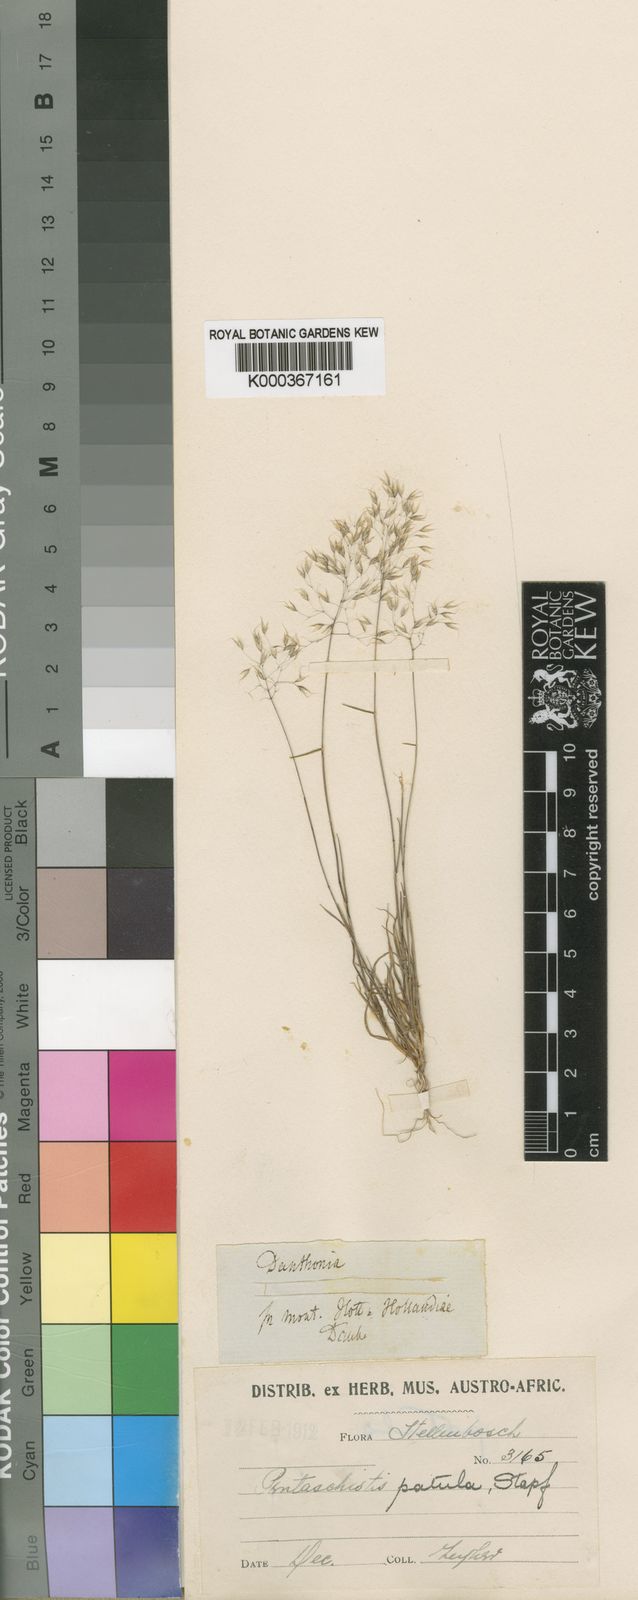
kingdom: Plantae
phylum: Tracheophyta
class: Liliopsida
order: Poales
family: Poaceae
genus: Pentameris
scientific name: Pentameris patula
